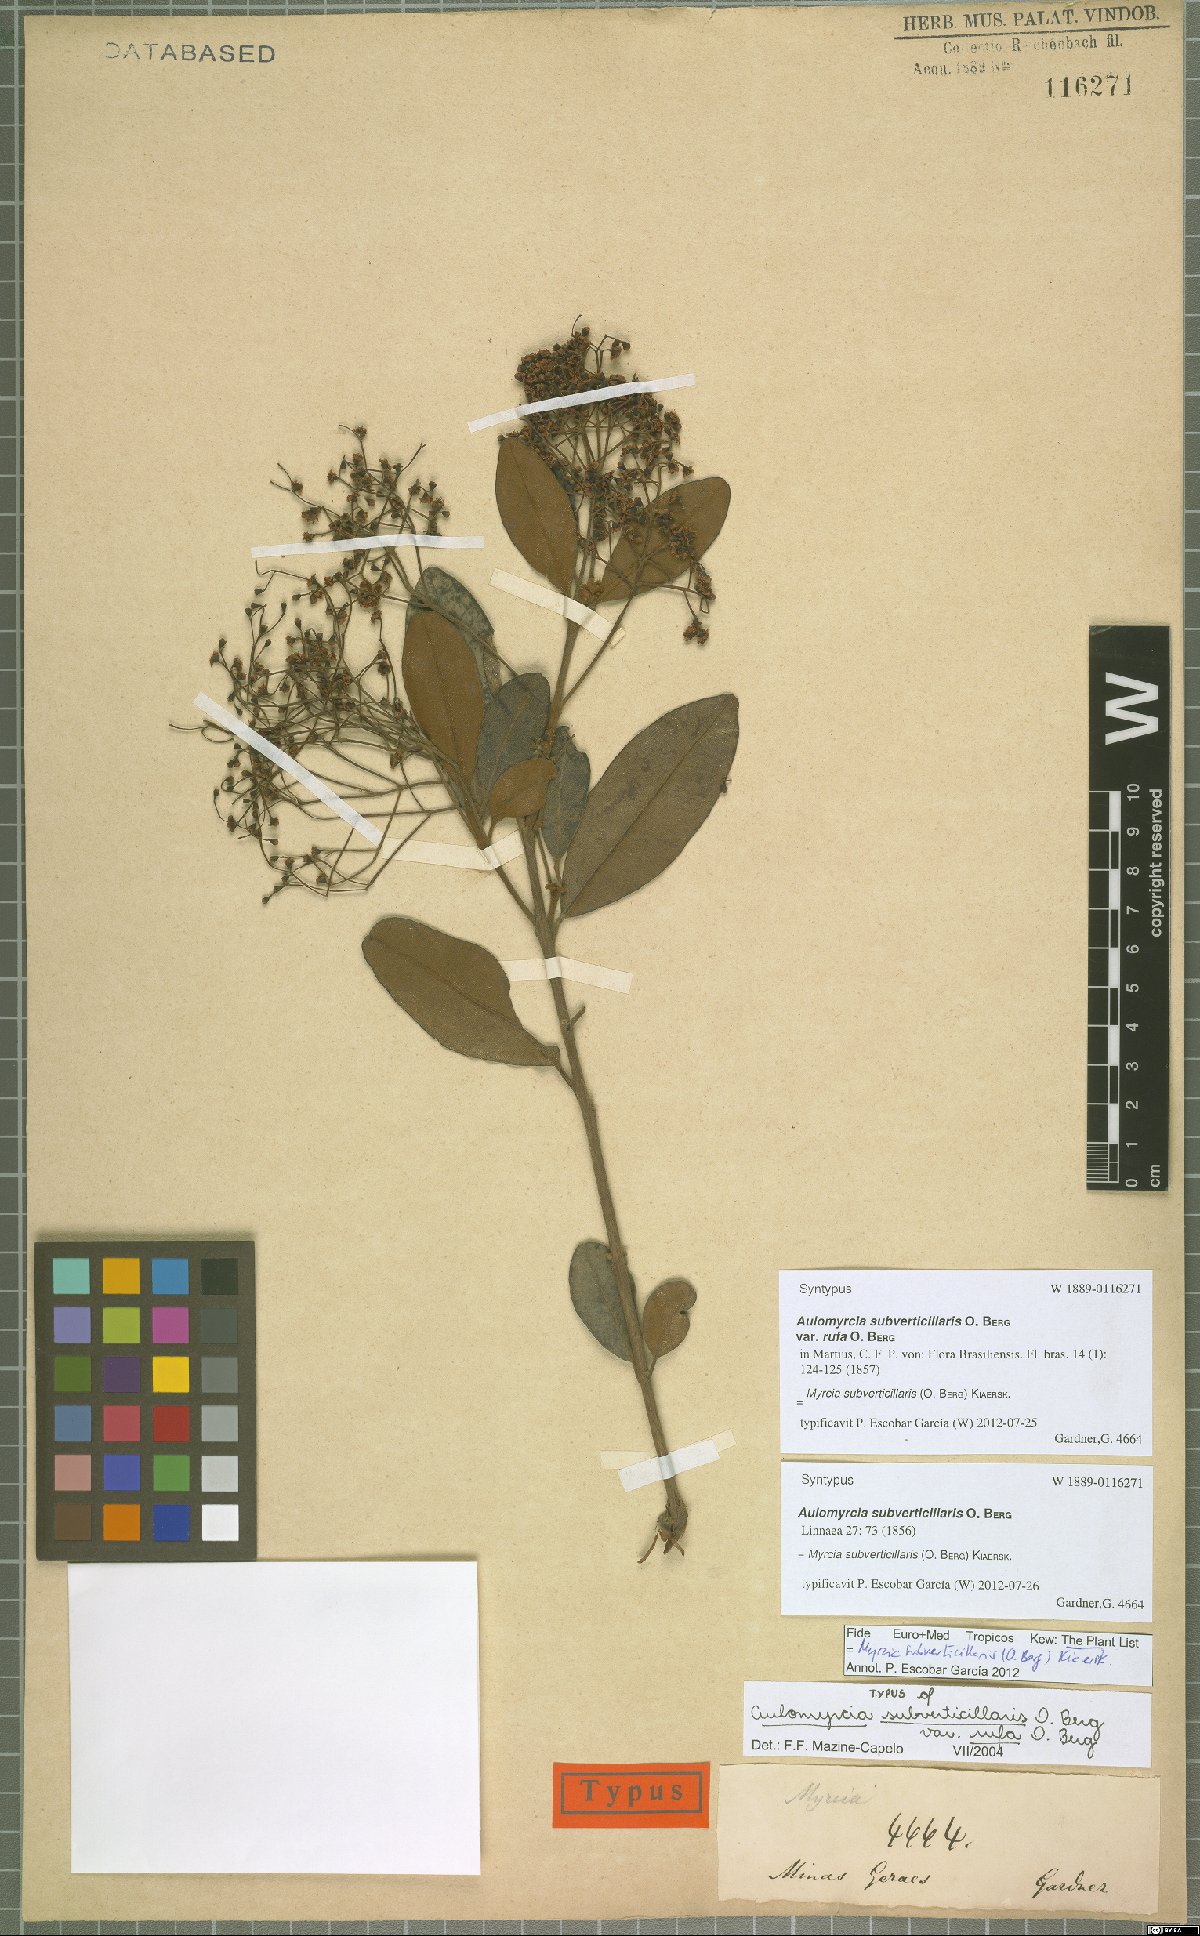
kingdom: Plantae
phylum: Tracheophyta
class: Magnoliopsida
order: Myrtales
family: Myrtaceae
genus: Myrcia
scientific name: Myrcia subverticillaris
